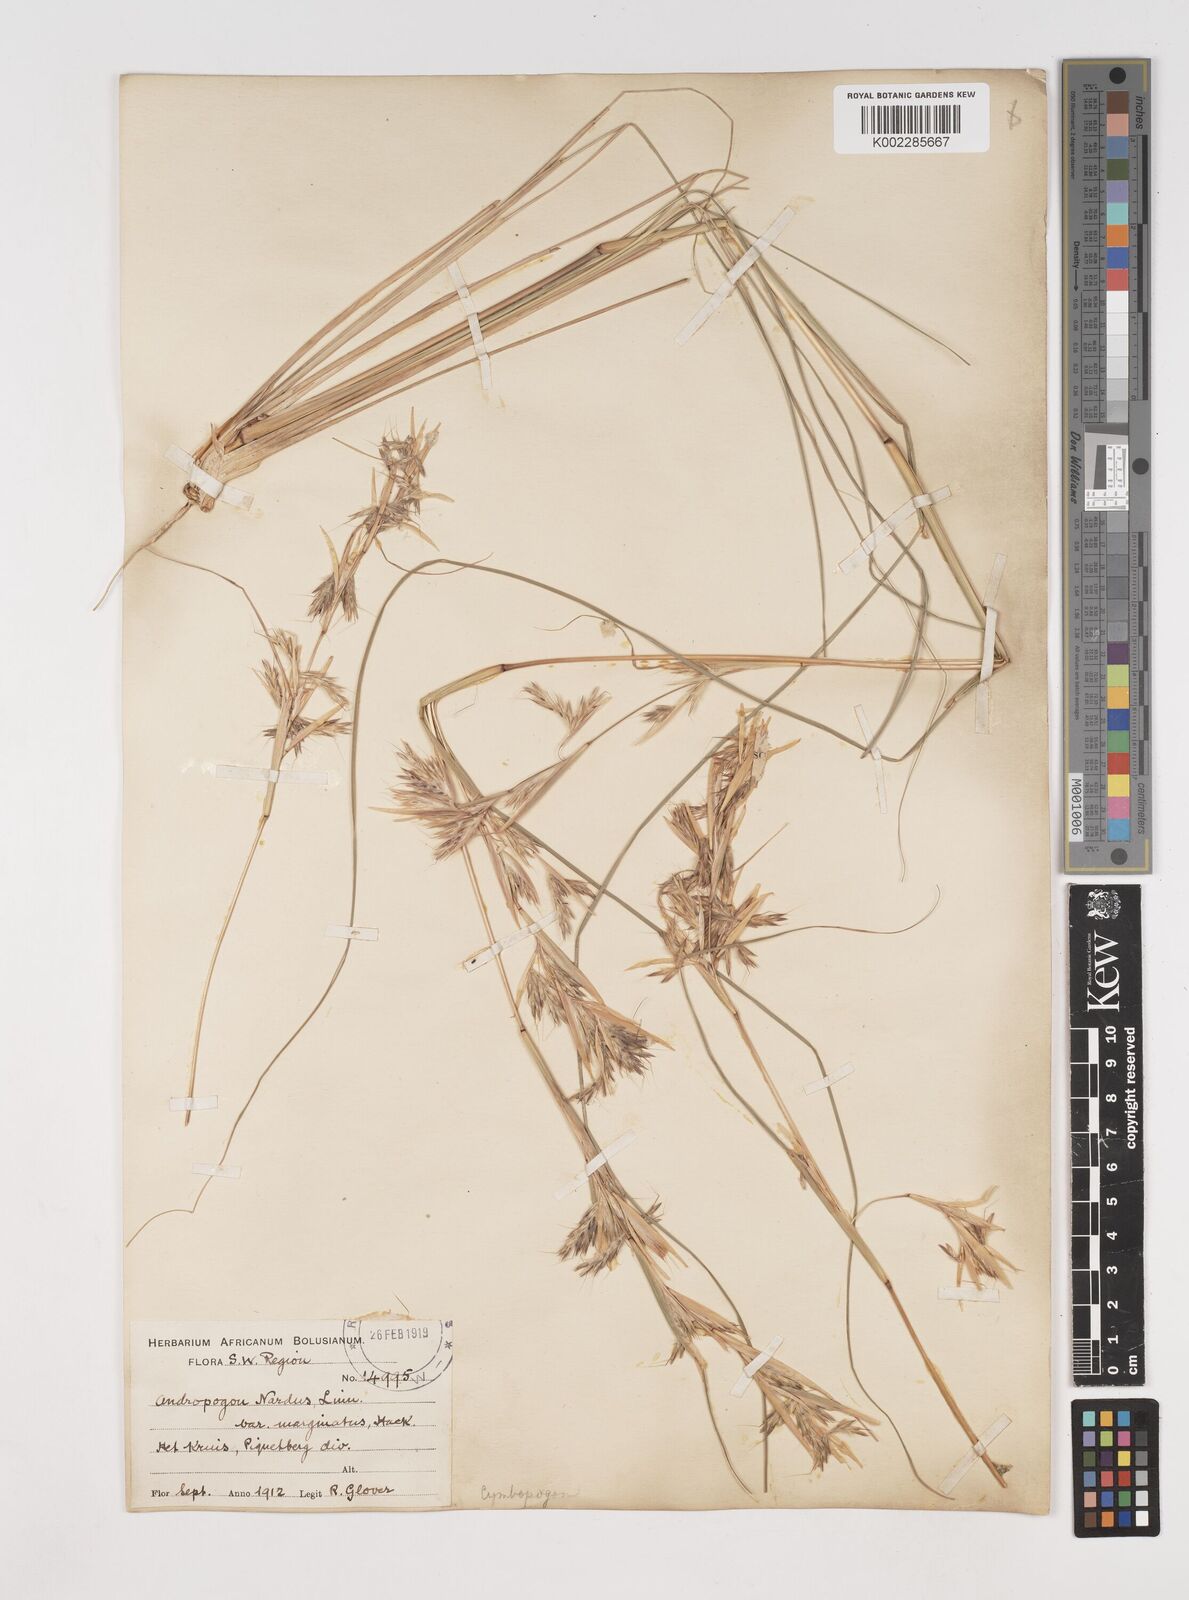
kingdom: Plantae
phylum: Tracheophyta
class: Liliopsida
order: Poales
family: Poaceae
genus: Cymbopogon
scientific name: Cymbopogon marginatus
